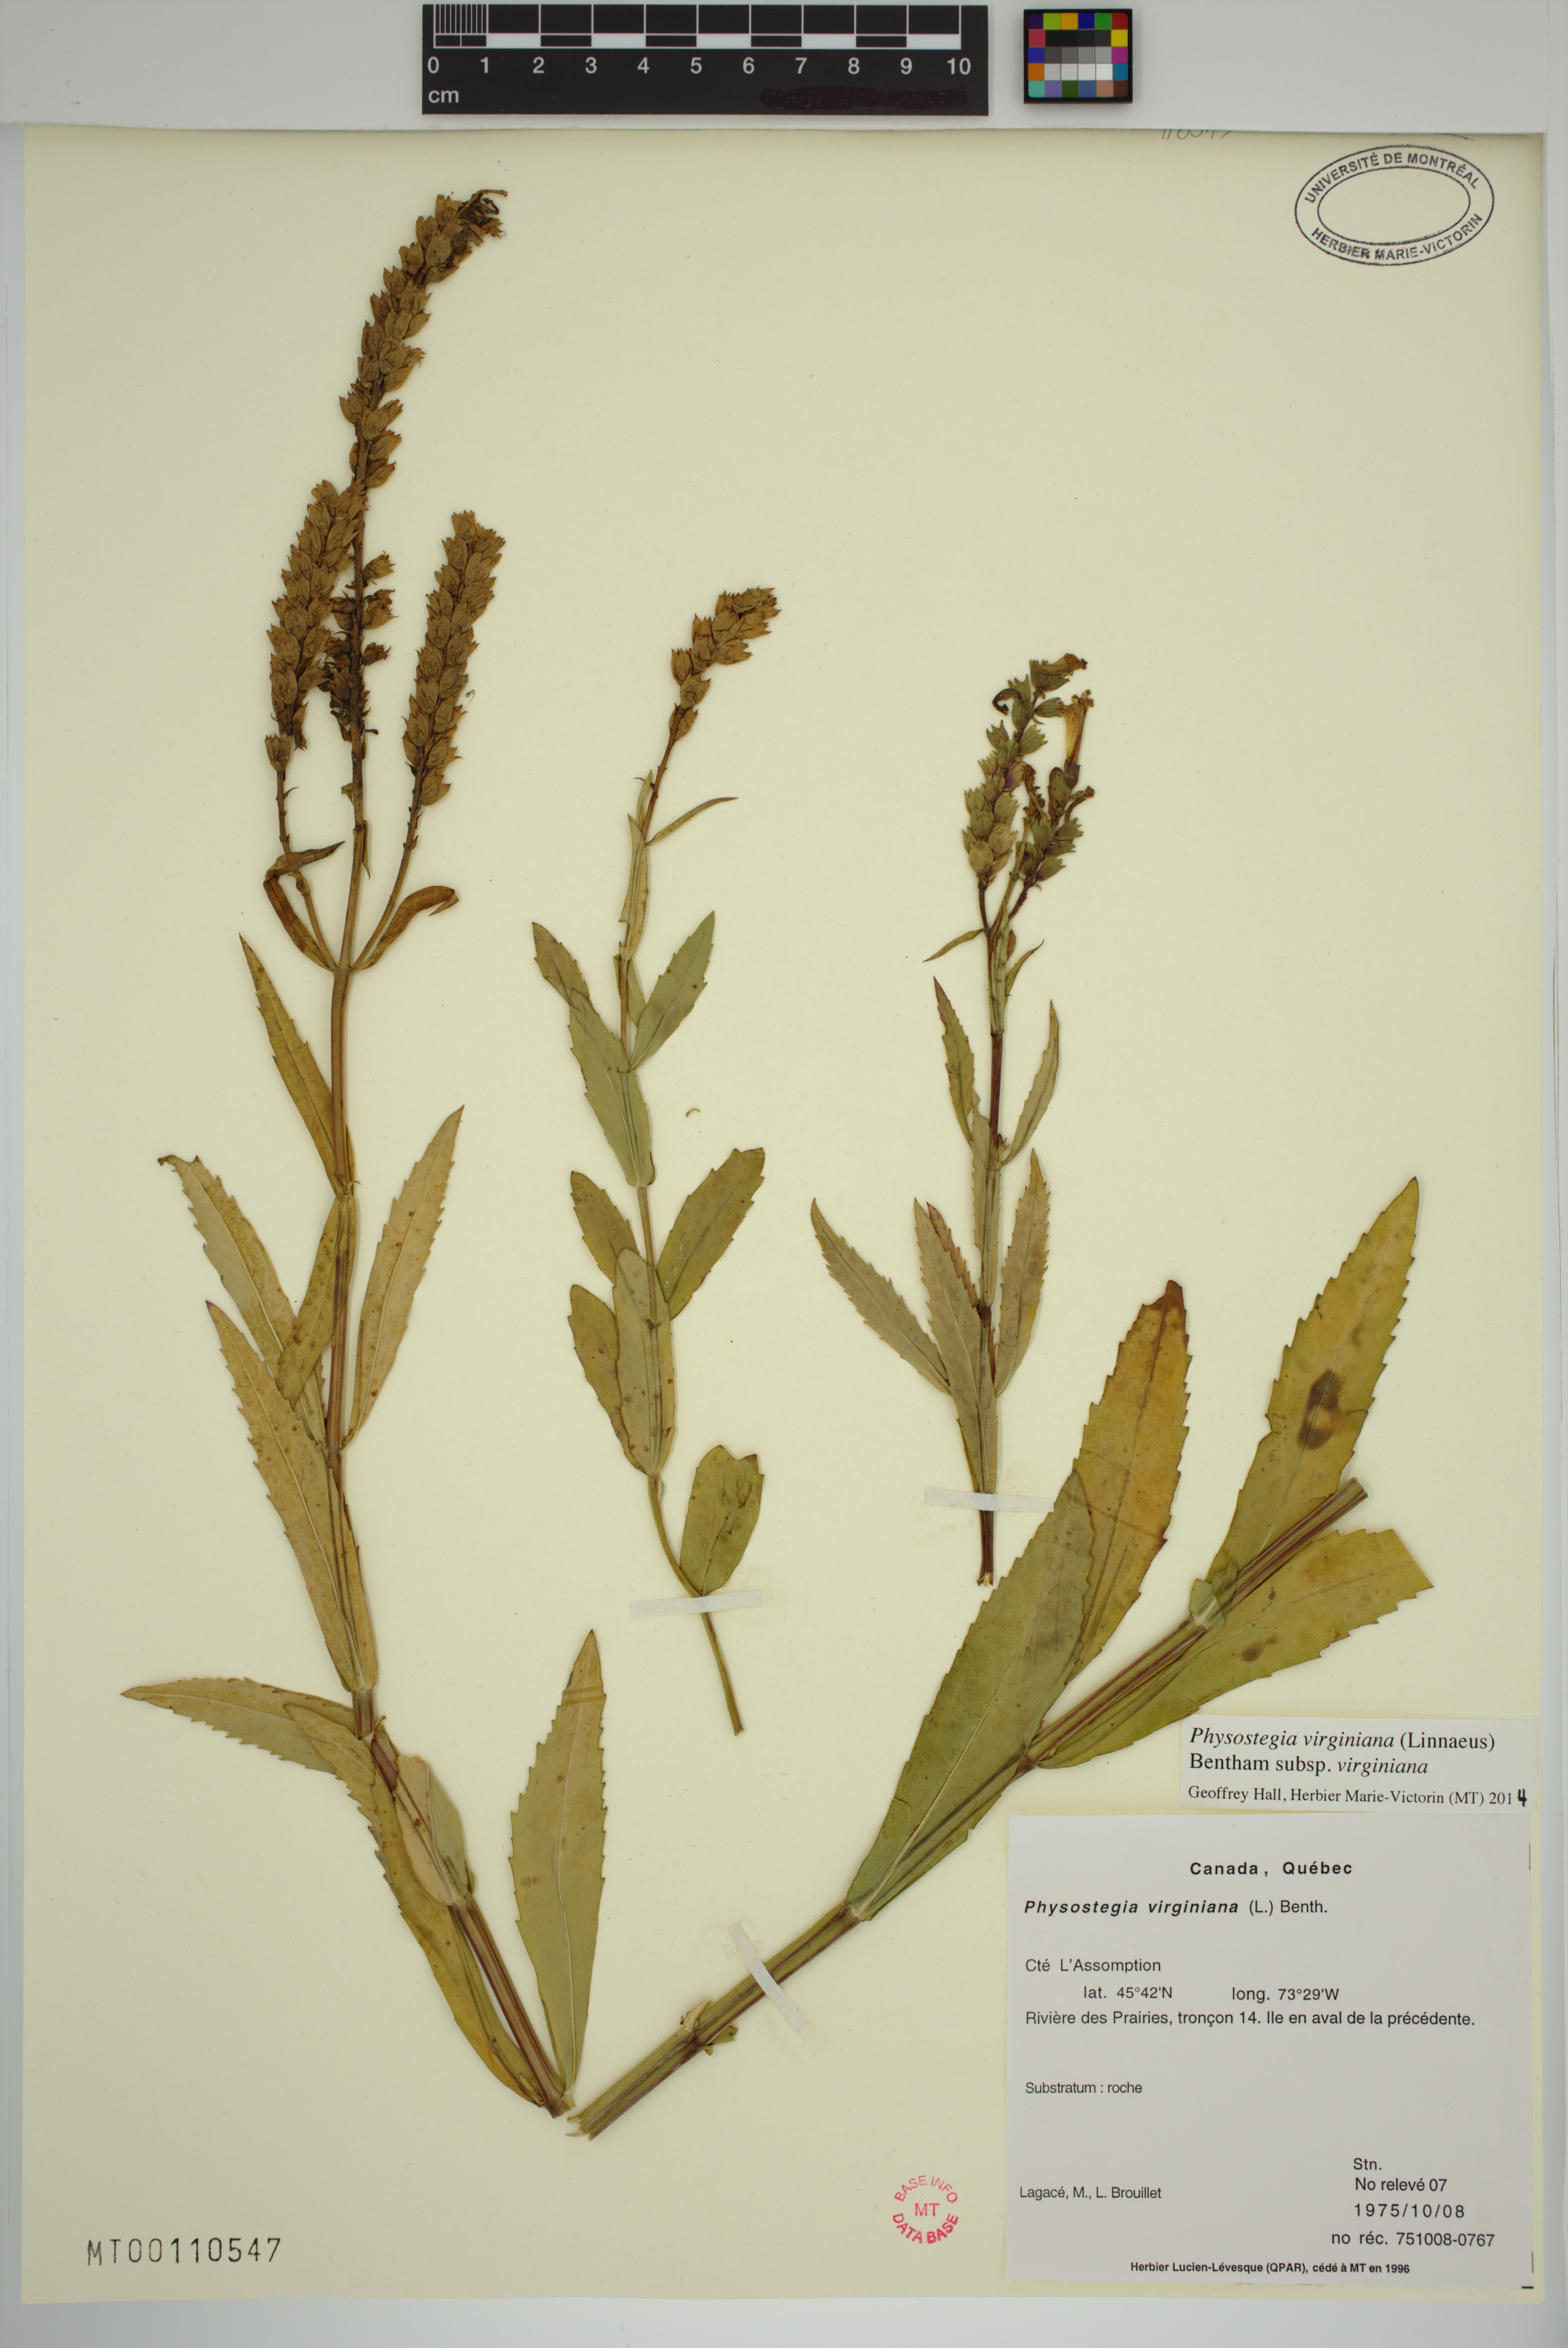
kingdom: Plantae
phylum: Tracheophyta
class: Magnoliopsida
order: Lamiales
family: Lamiaceae
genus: Physostegia
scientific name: Physostegia virginiana
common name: Obedient-plant
